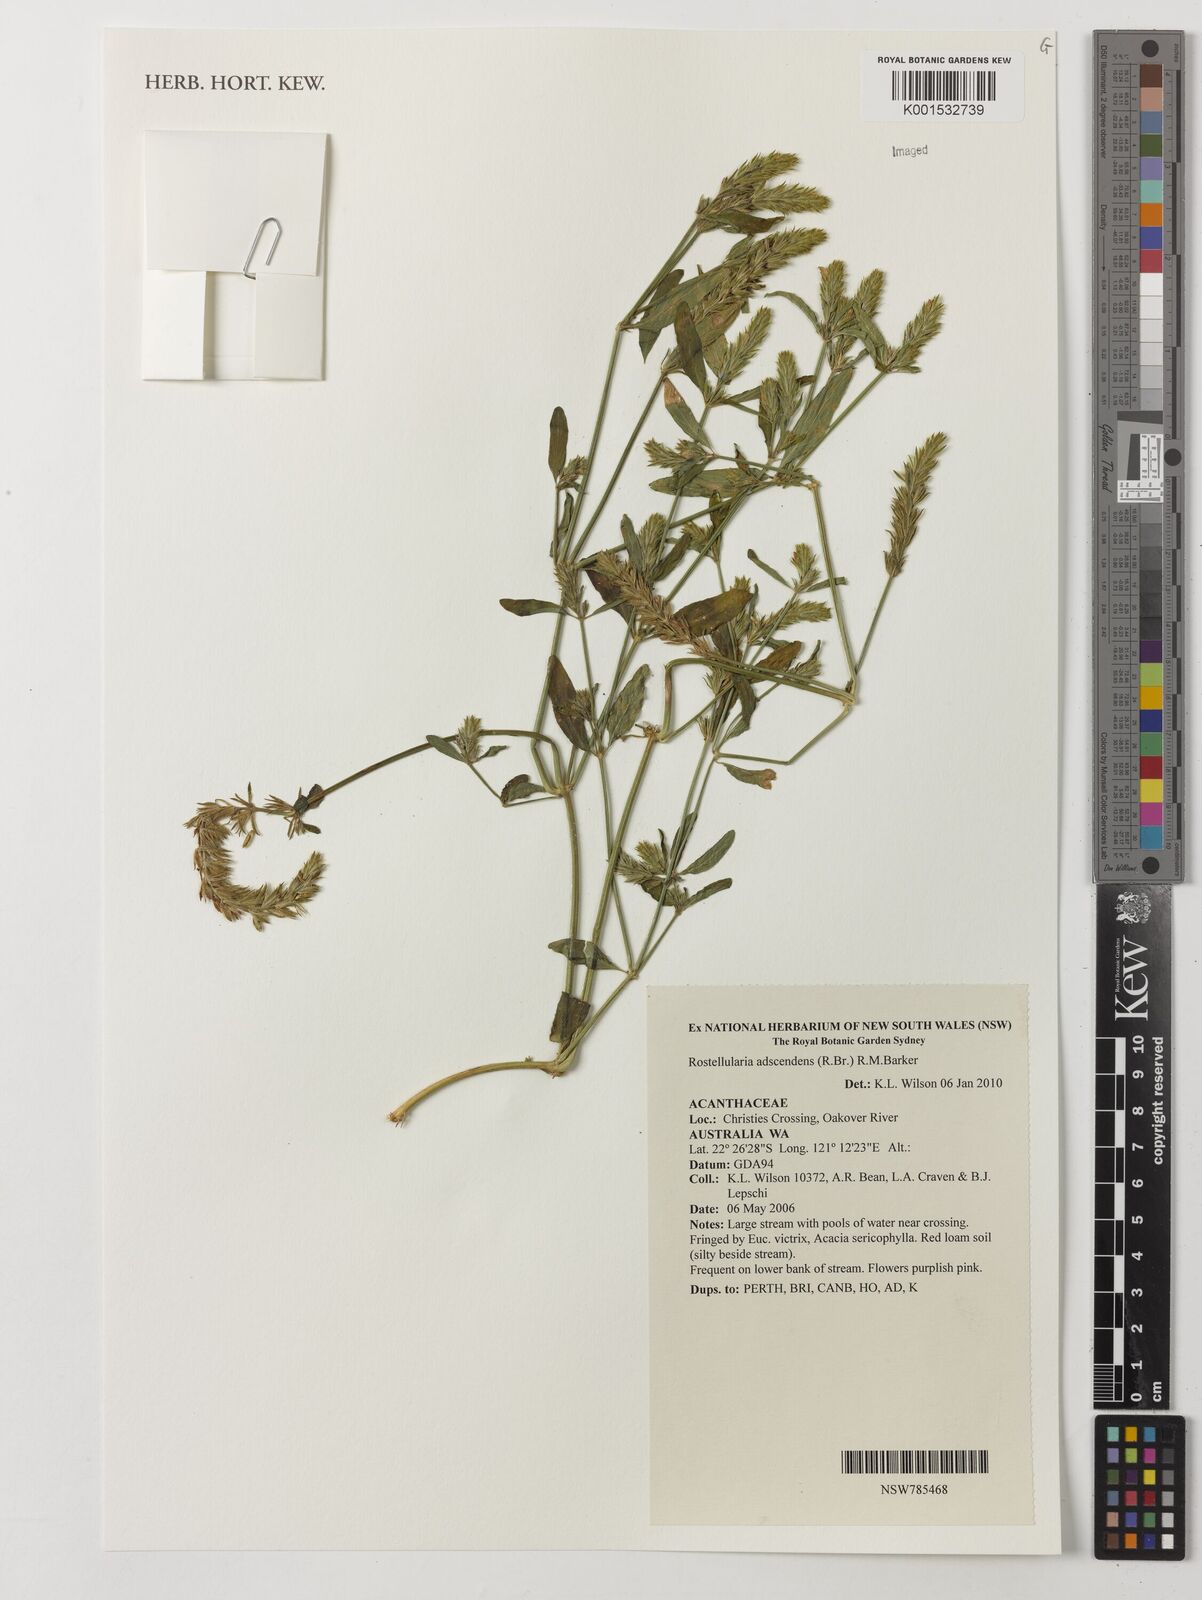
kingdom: Plantae
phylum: Tracheophyta
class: Magnoliopsida
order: Lamiales
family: Acanthaceae
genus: Rostellularia
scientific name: Rostellularia adscendens
